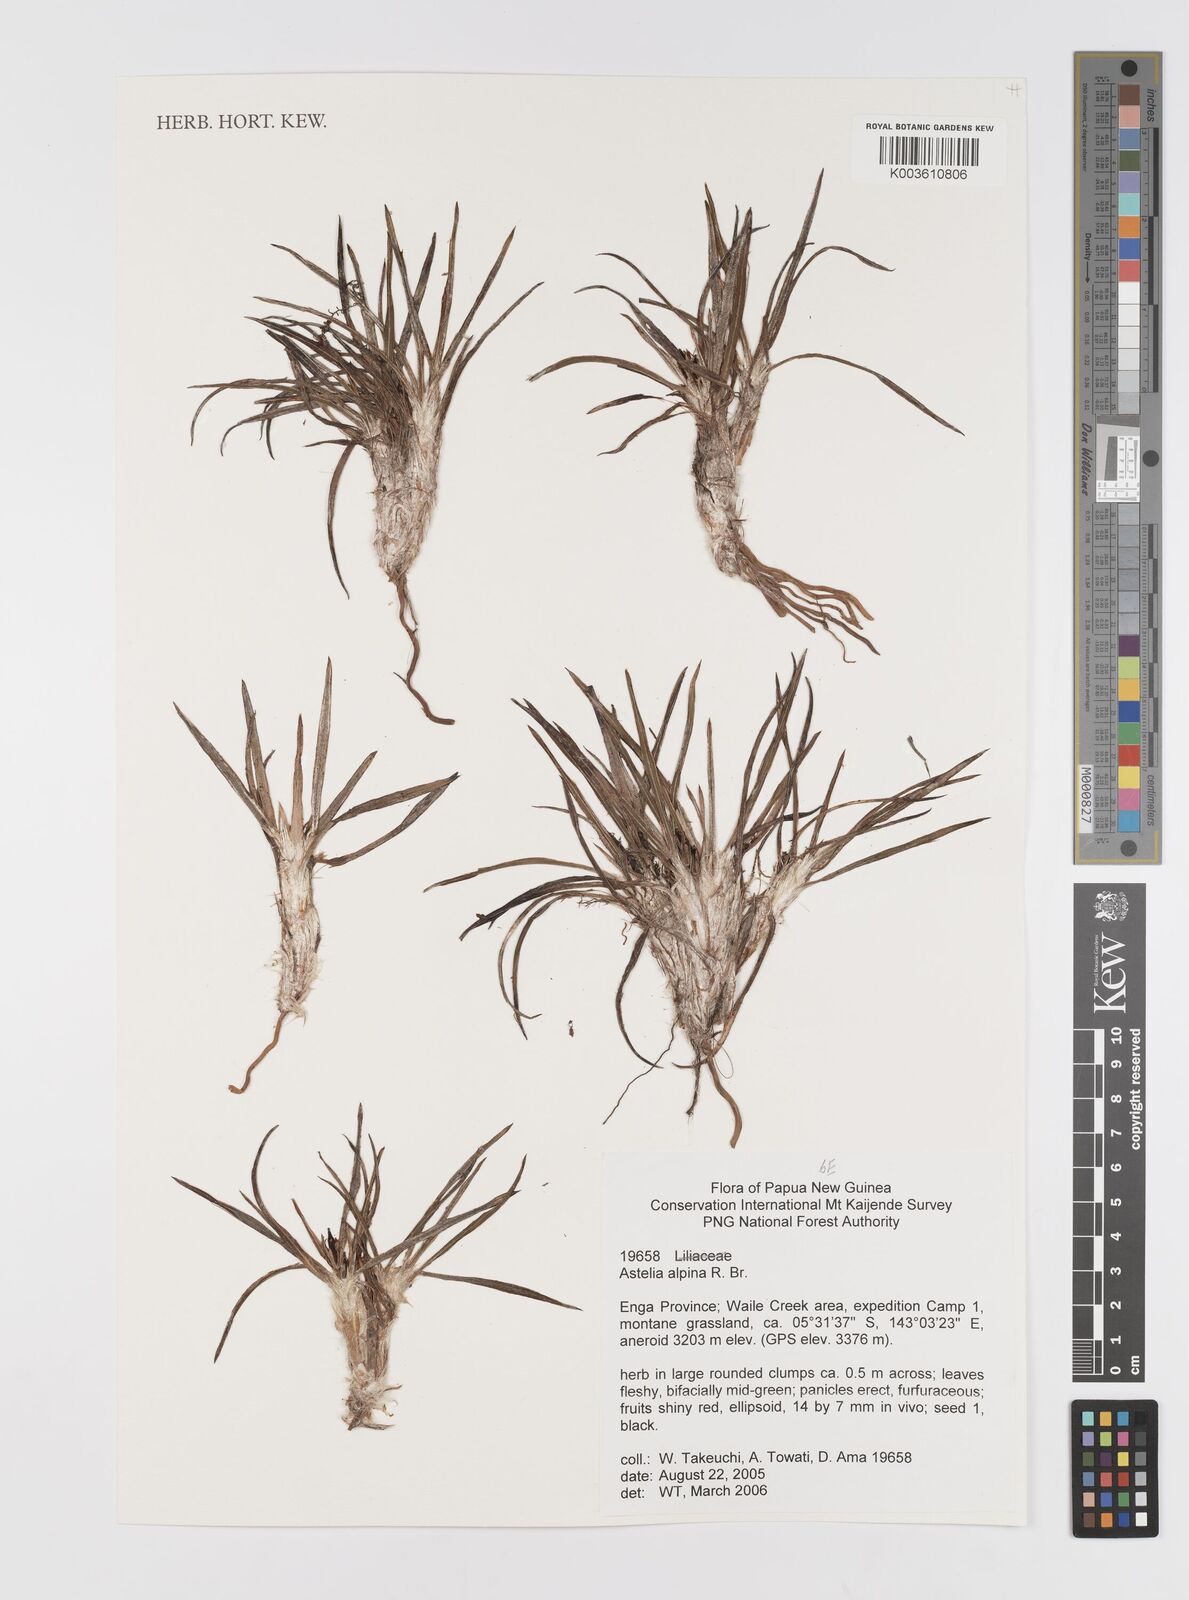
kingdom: Plantae
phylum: Tracheophyta
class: Liliopsida
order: Asparagales
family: Asteliaceae
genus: Astelia
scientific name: Astelia papuana
